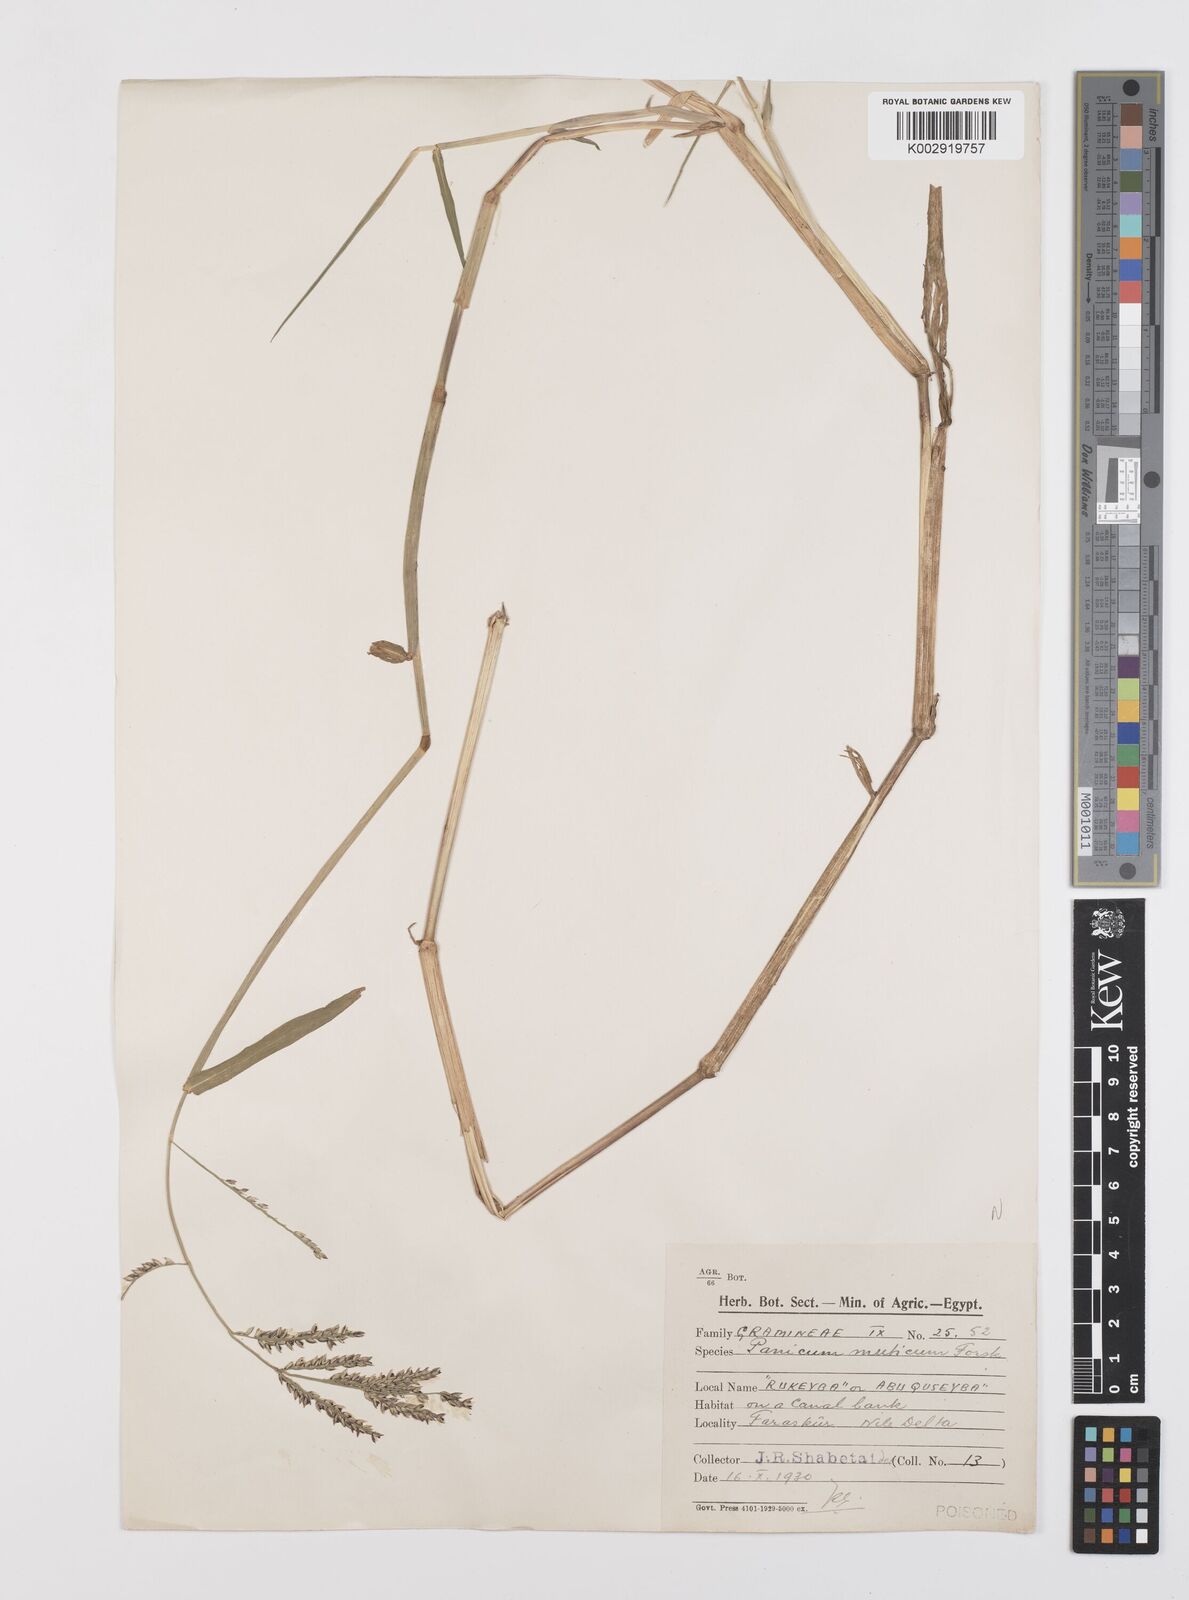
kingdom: Plantae
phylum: Tracheophyta
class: Liliopsida
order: Poales
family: Poaceae
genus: Urochloa
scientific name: Urochloa mutica
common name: Para grass
